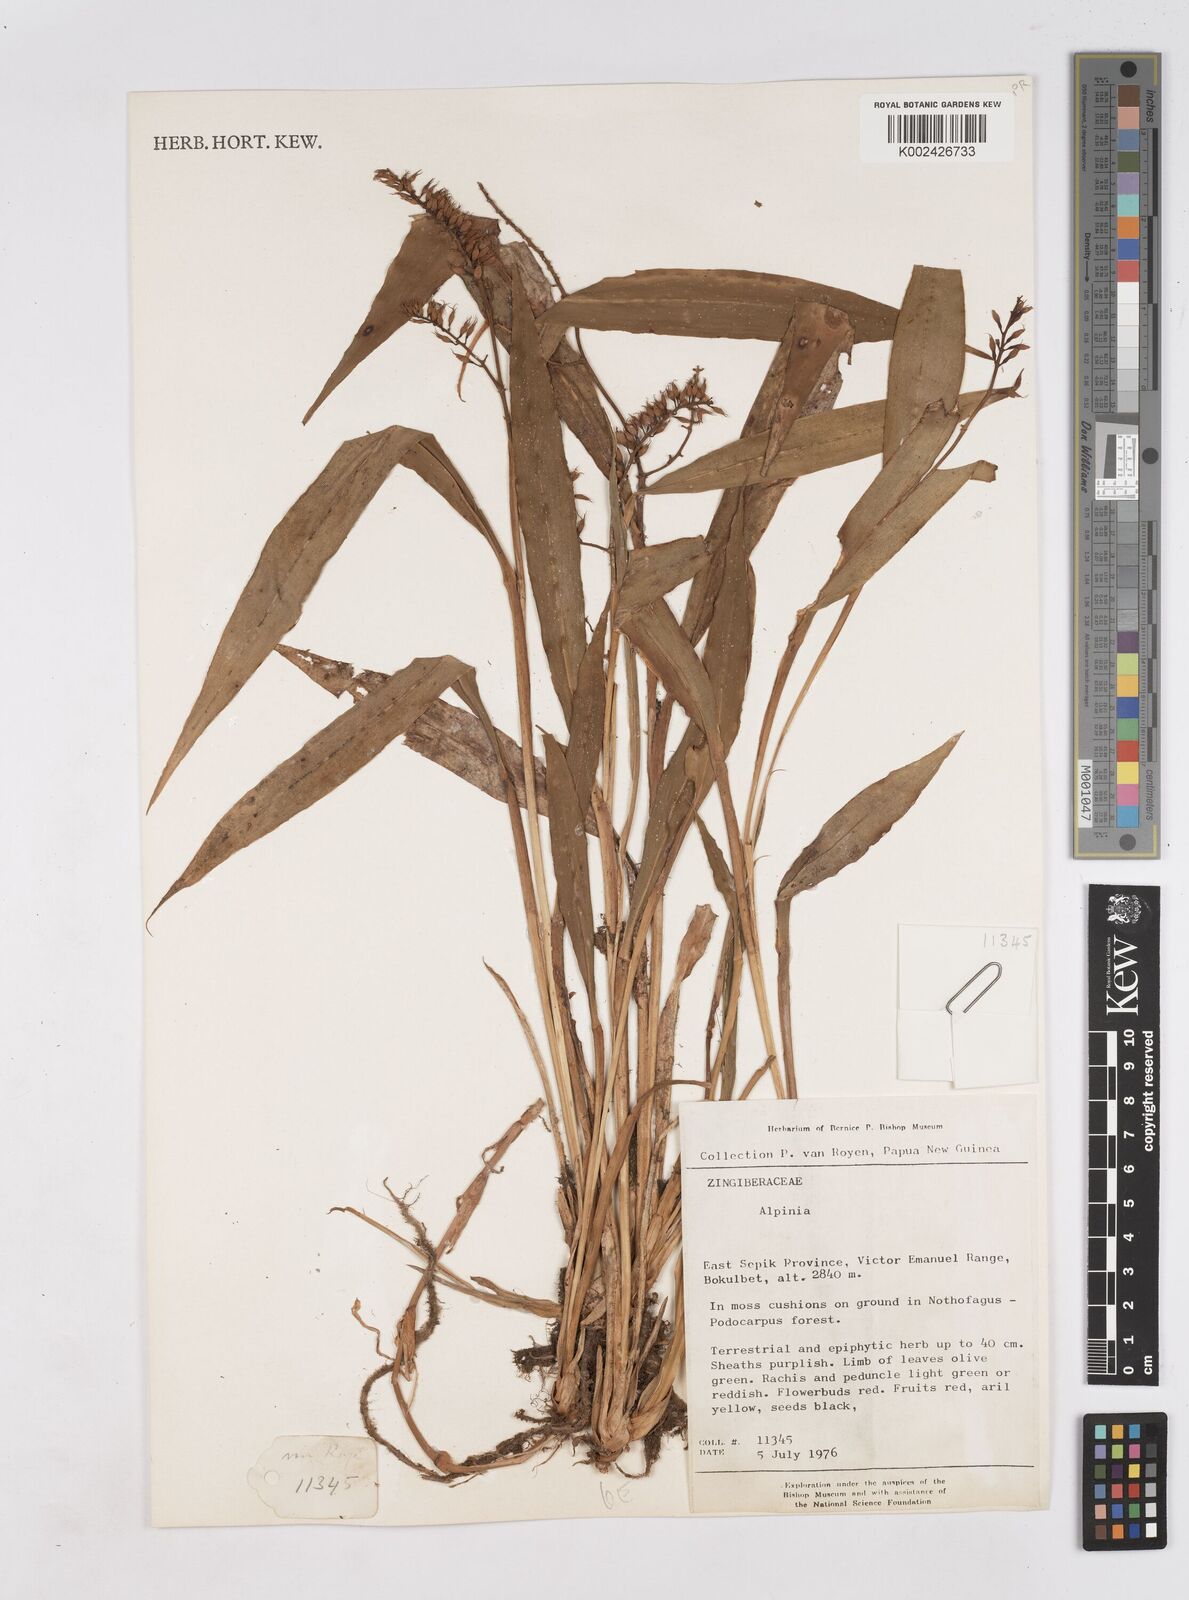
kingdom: Plantae
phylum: Tracheophyta
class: Liliopsida
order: Zingiberales
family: Zingiberaceae
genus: Riedelia
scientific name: Riedelia
